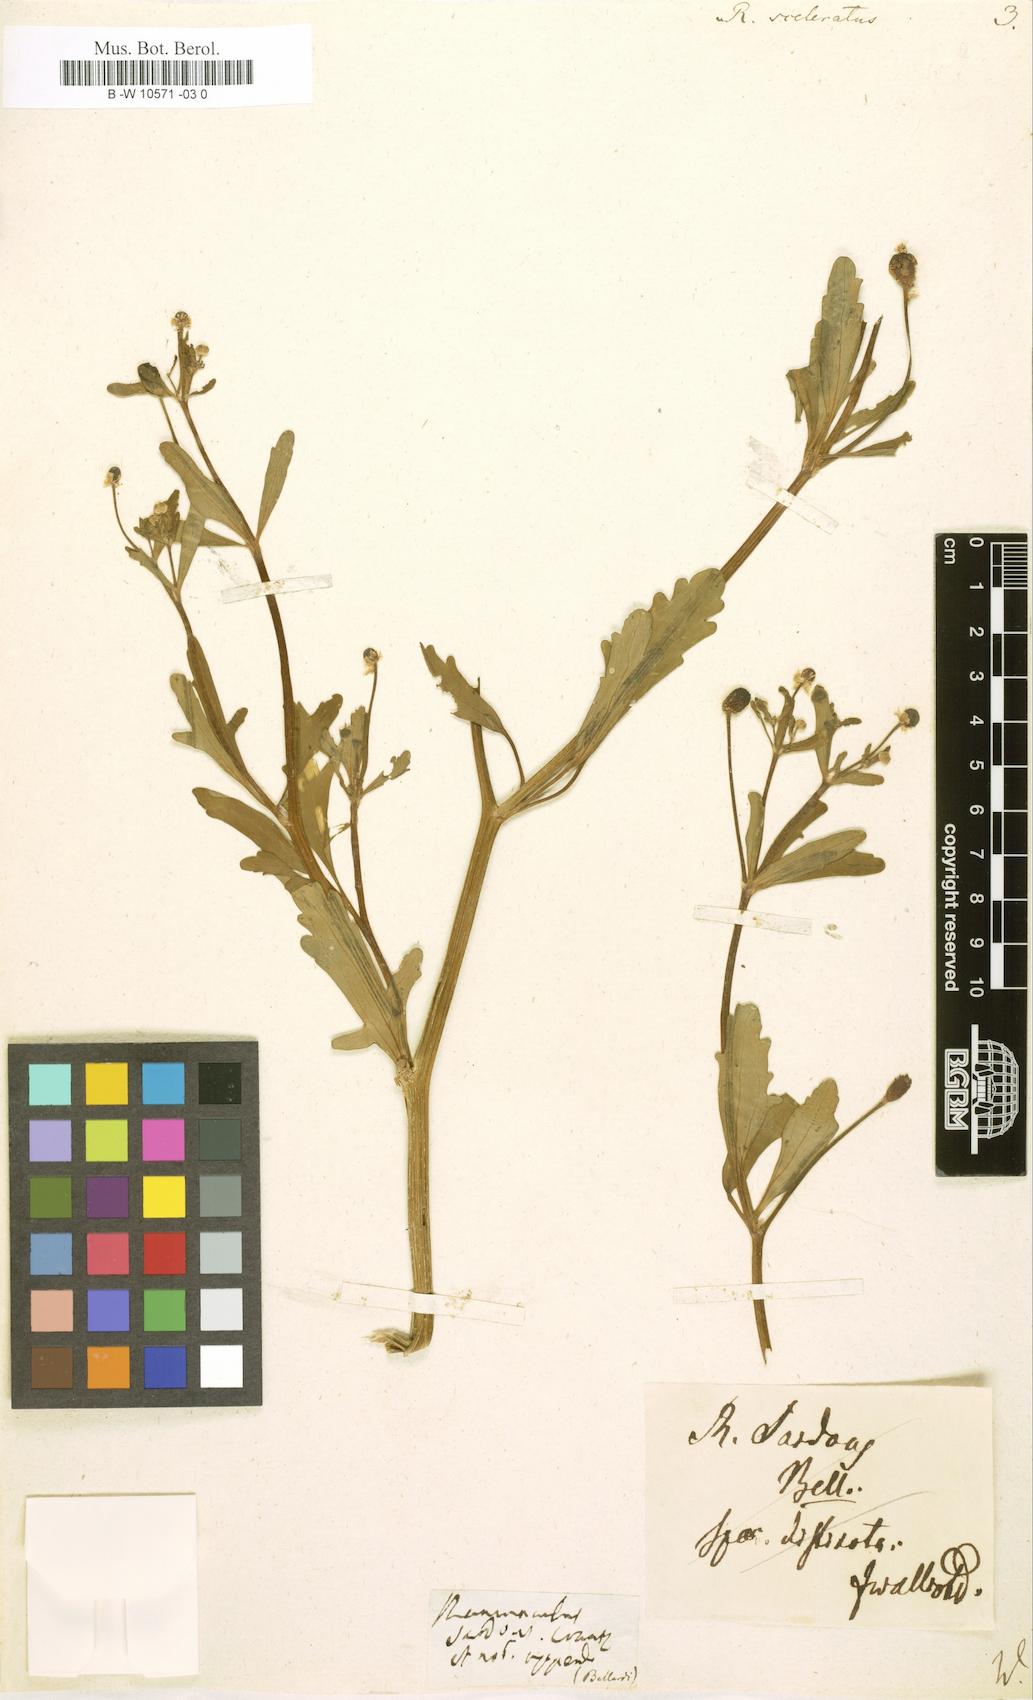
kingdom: Plantae
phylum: Tracheophyta
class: Magnoliopsida
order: Ranunculales
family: Ranunculaceae
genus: Ranunculus
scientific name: Ranunculus sceleratus
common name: Celery-leaved buttercup
